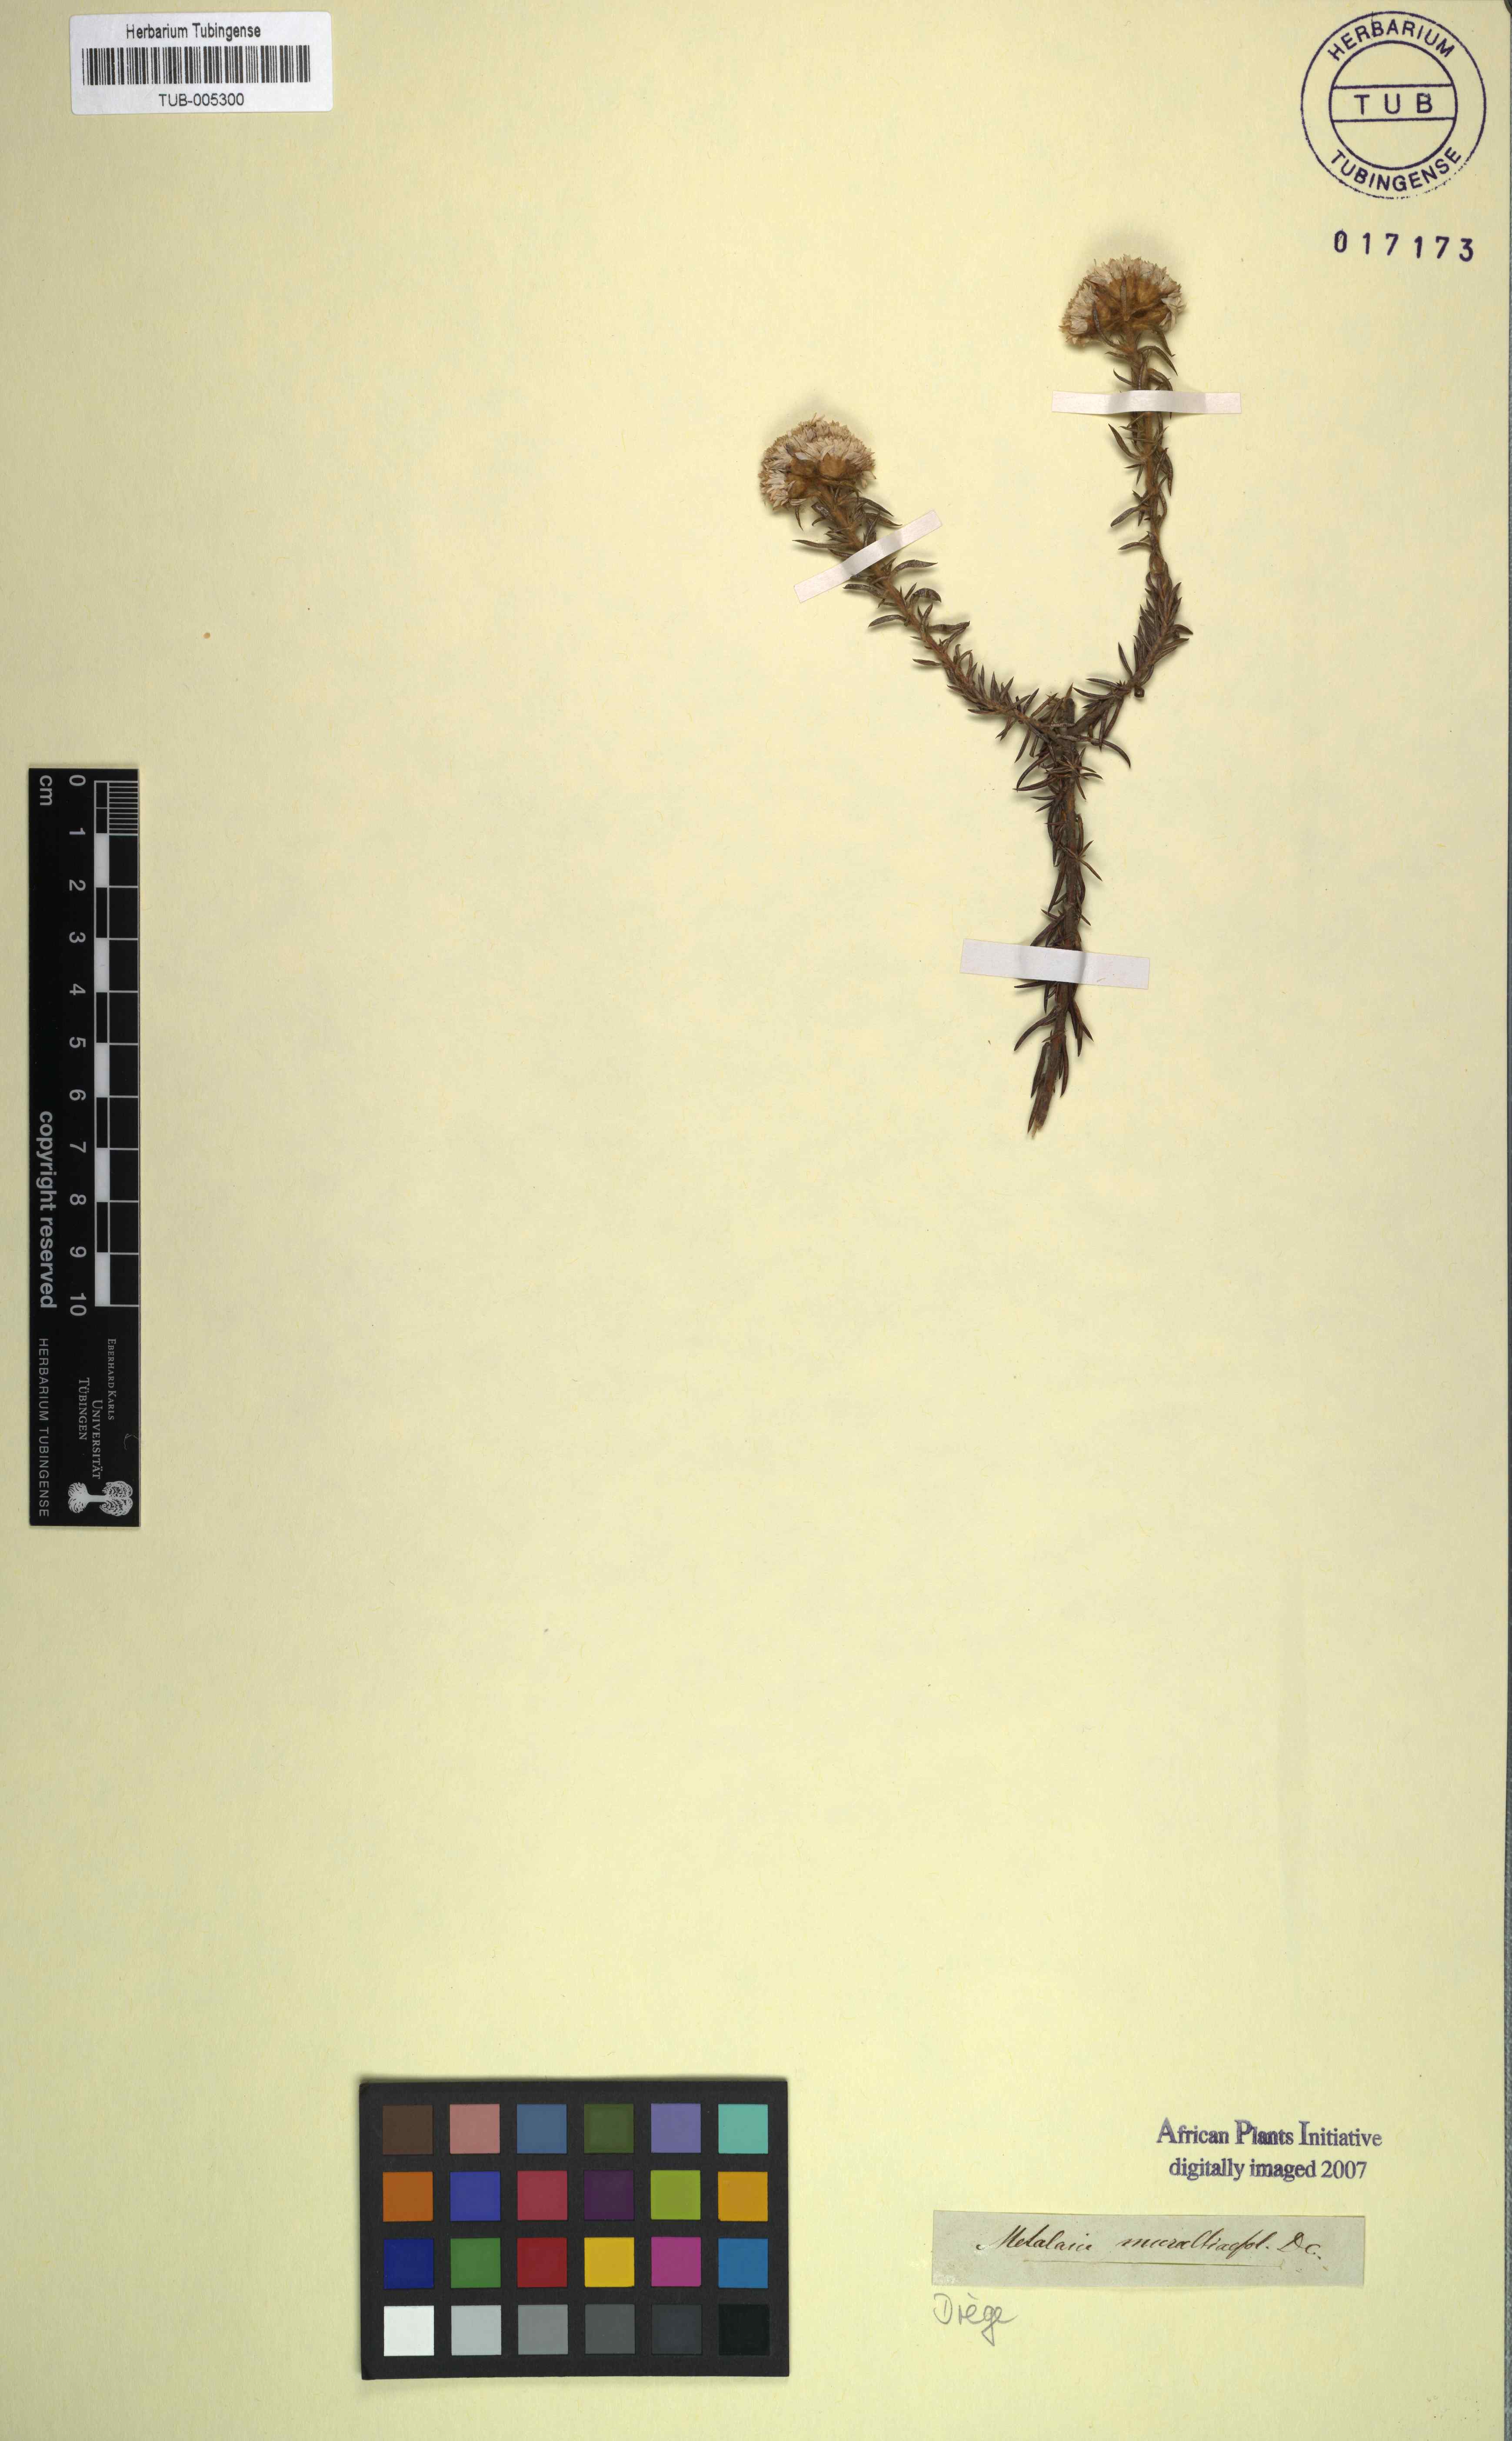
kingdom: Plantae
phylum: Tracheophyta
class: Magnoliopsida
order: Asterales
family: Asteraceae
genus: Metalasia
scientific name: Metalasia cephalotes
